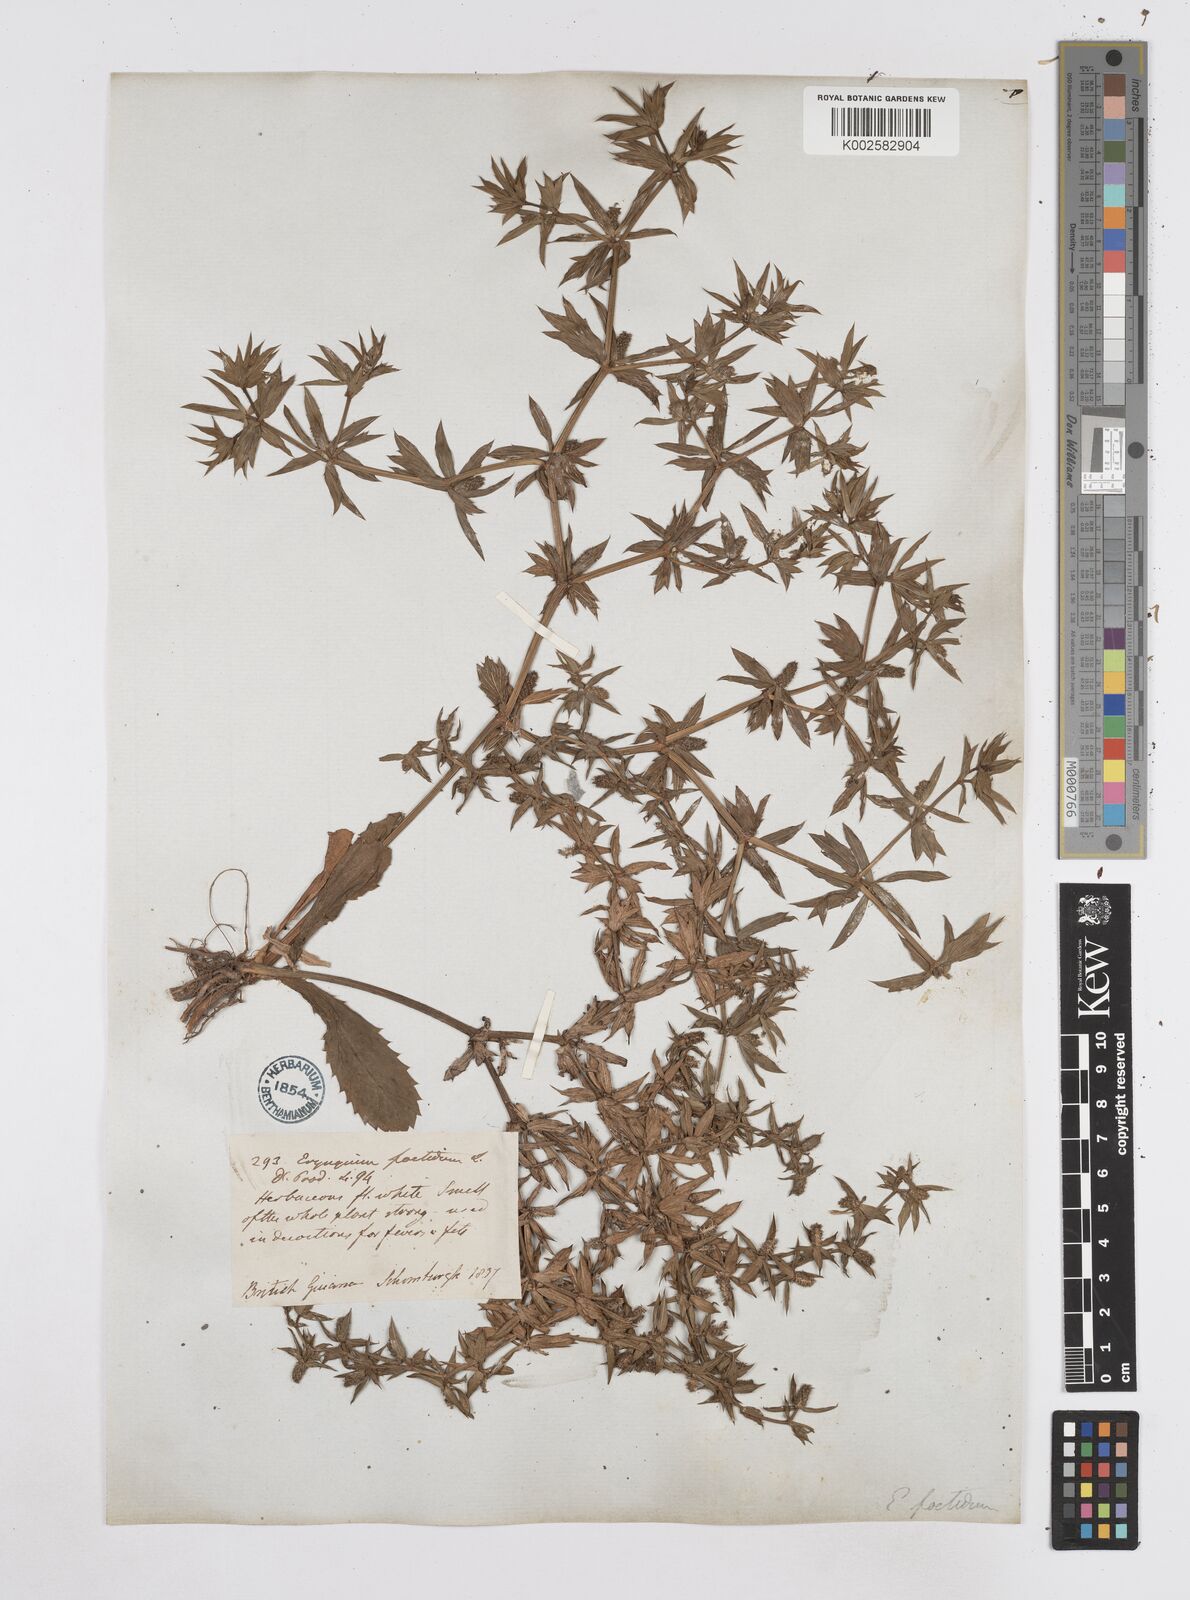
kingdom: Plantae
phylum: Tracheophyta
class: Magnoliopsida
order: Apiales
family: Apiaceae
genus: Eryngium
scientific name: Eryngium foetidum
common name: Fitweed
